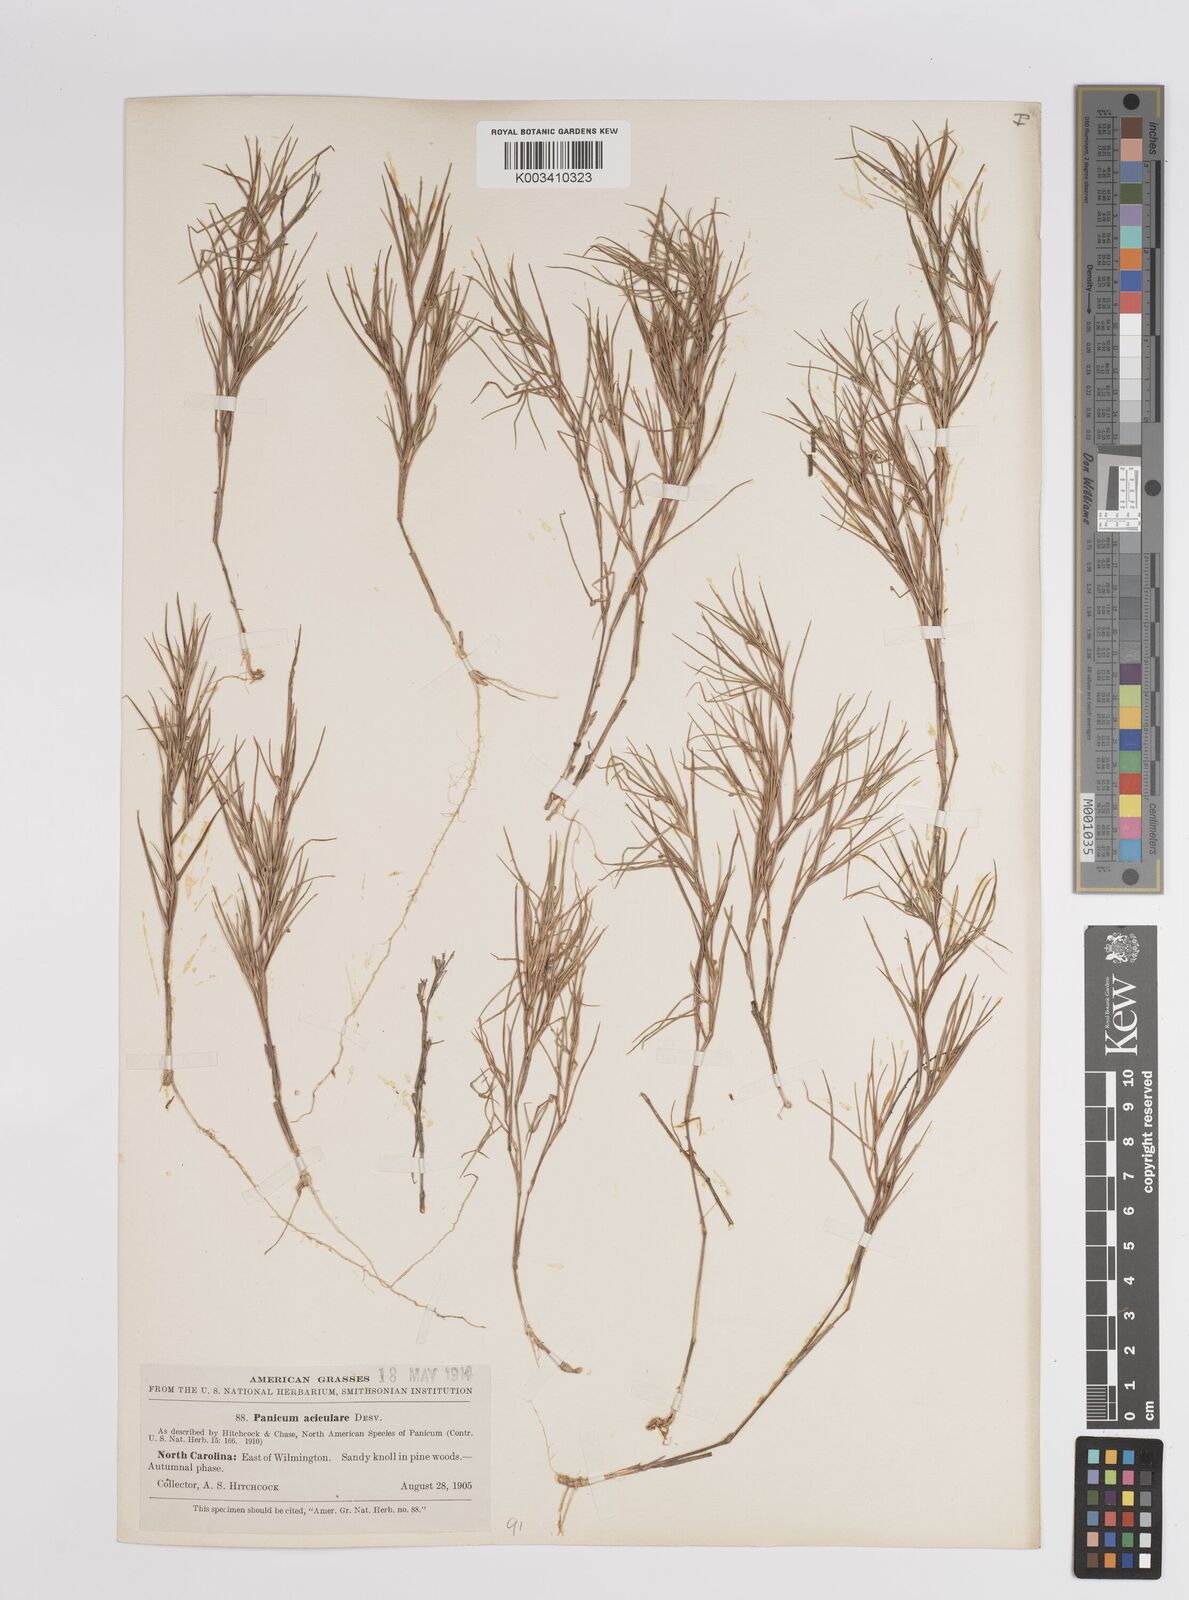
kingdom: Plantae
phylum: Tracheophyta
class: Liliopsida
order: Poales
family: Poaceae
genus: Dichanthelium
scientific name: Dichanthelium aciculare
